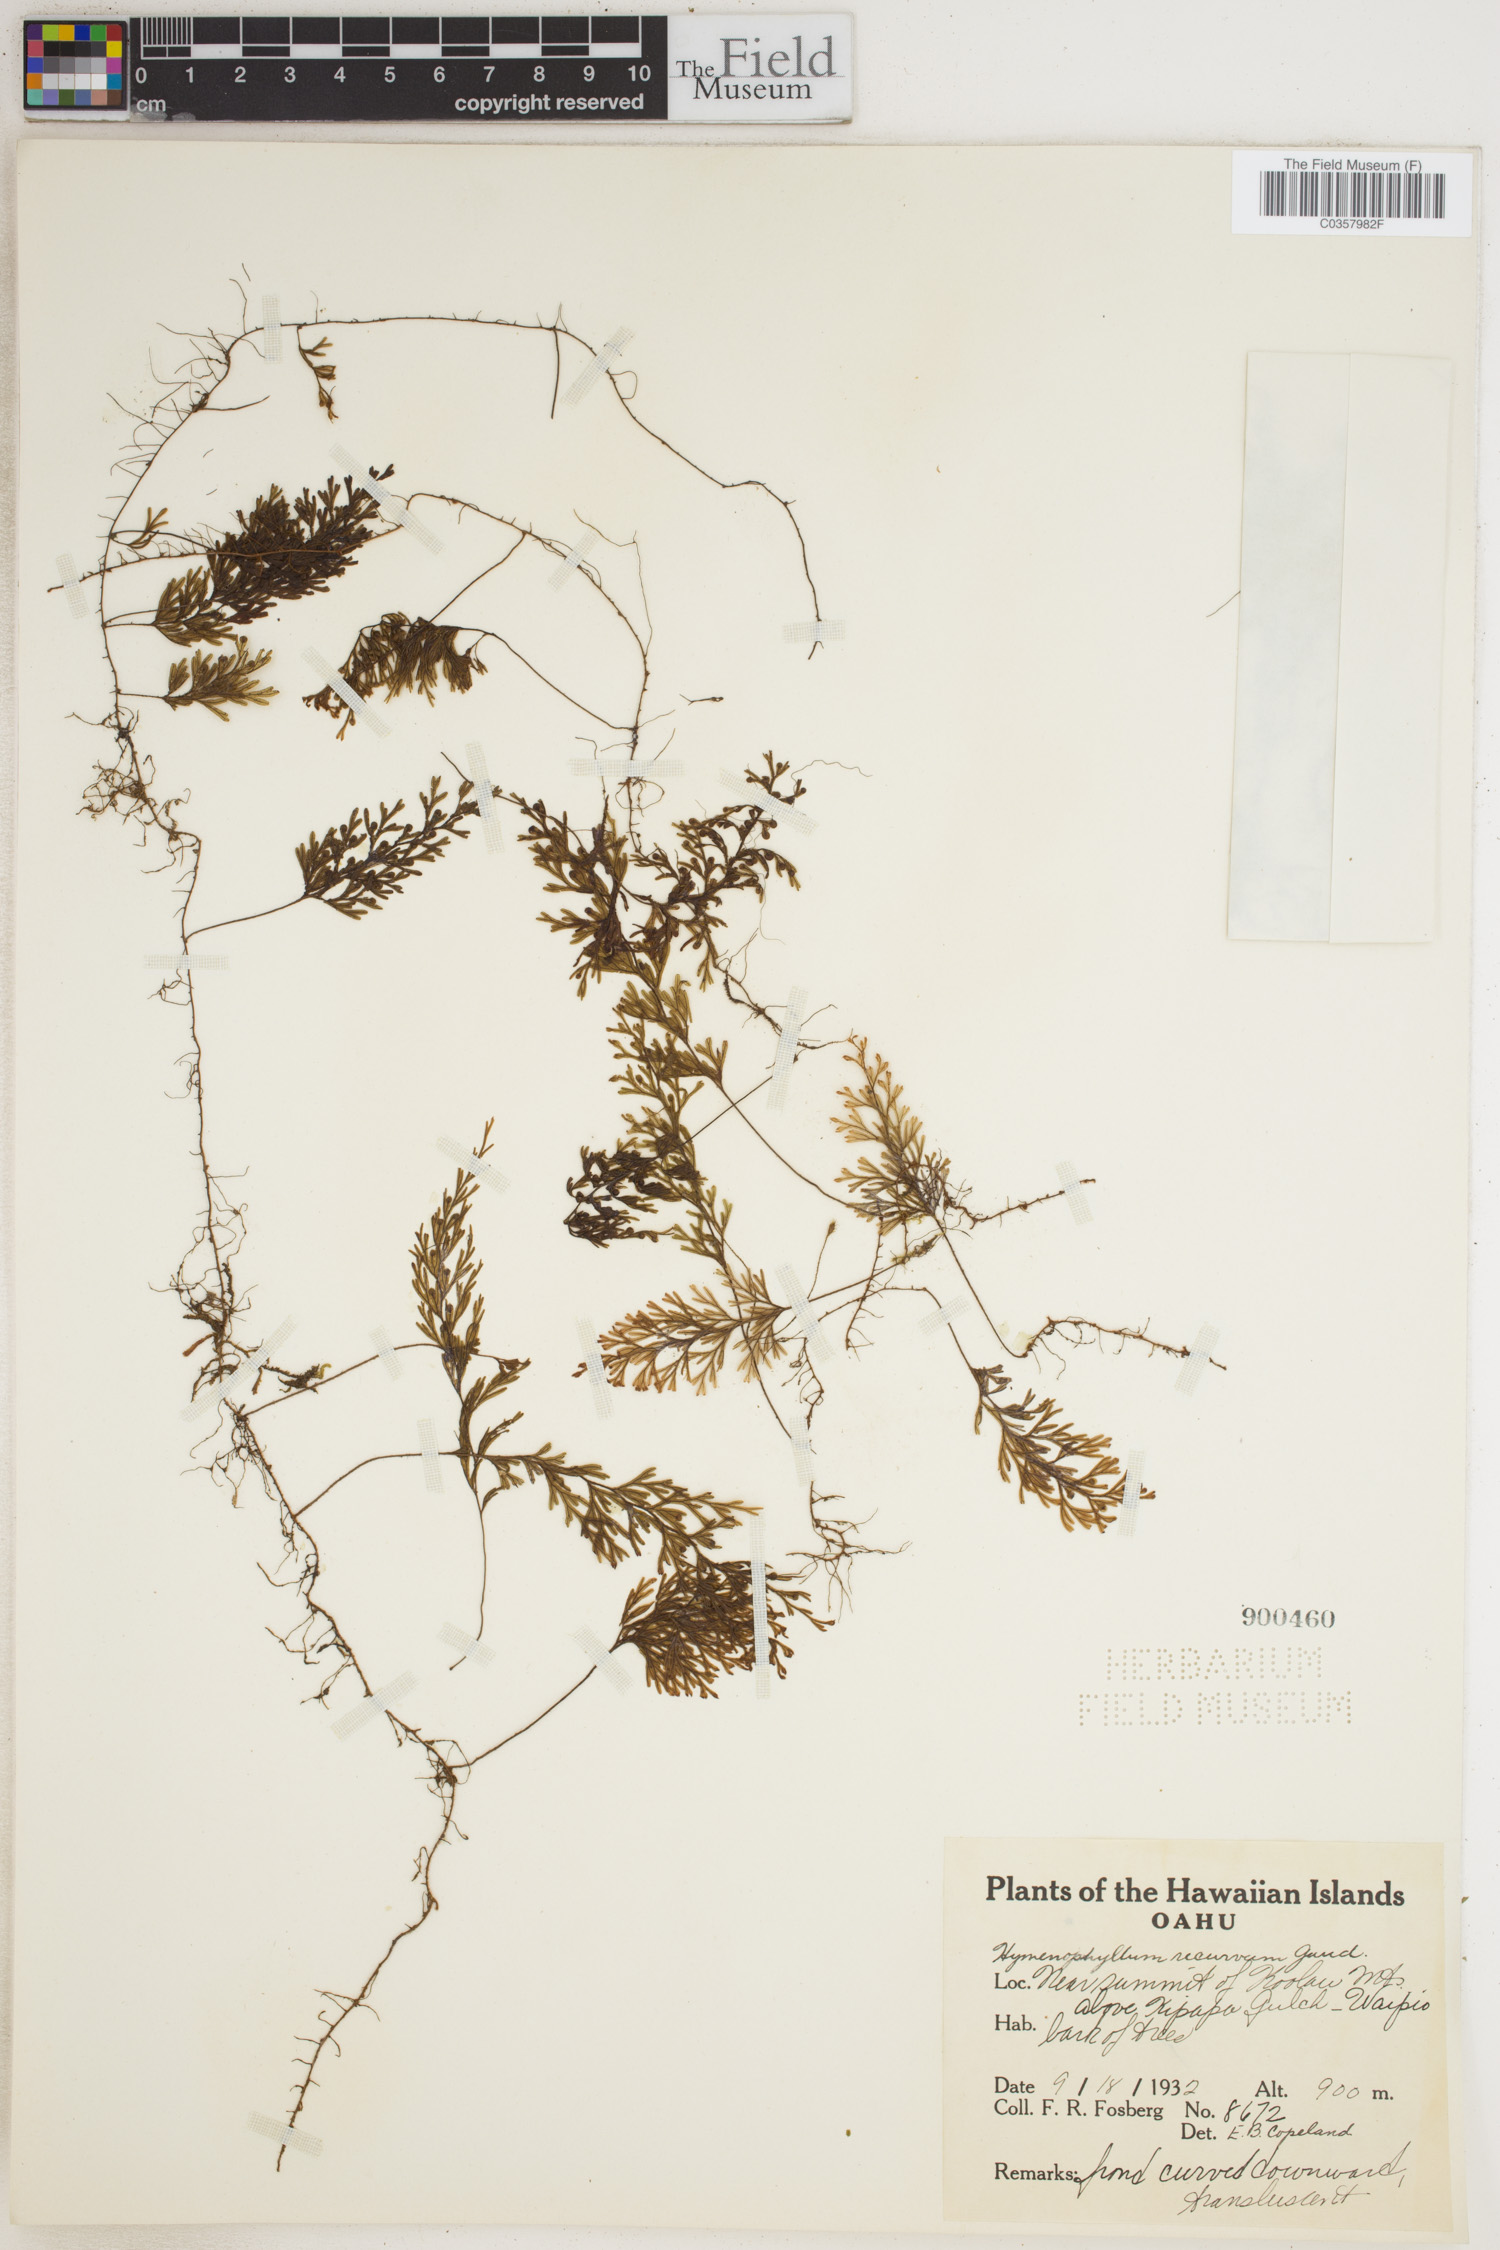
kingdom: Plantae
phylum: Tracheophyta
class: Polypodiopsida
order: Hymenophyllales
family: Hymenophyllaceae
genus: Hymenophyllum
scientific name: Hymenophyllum recurvum
